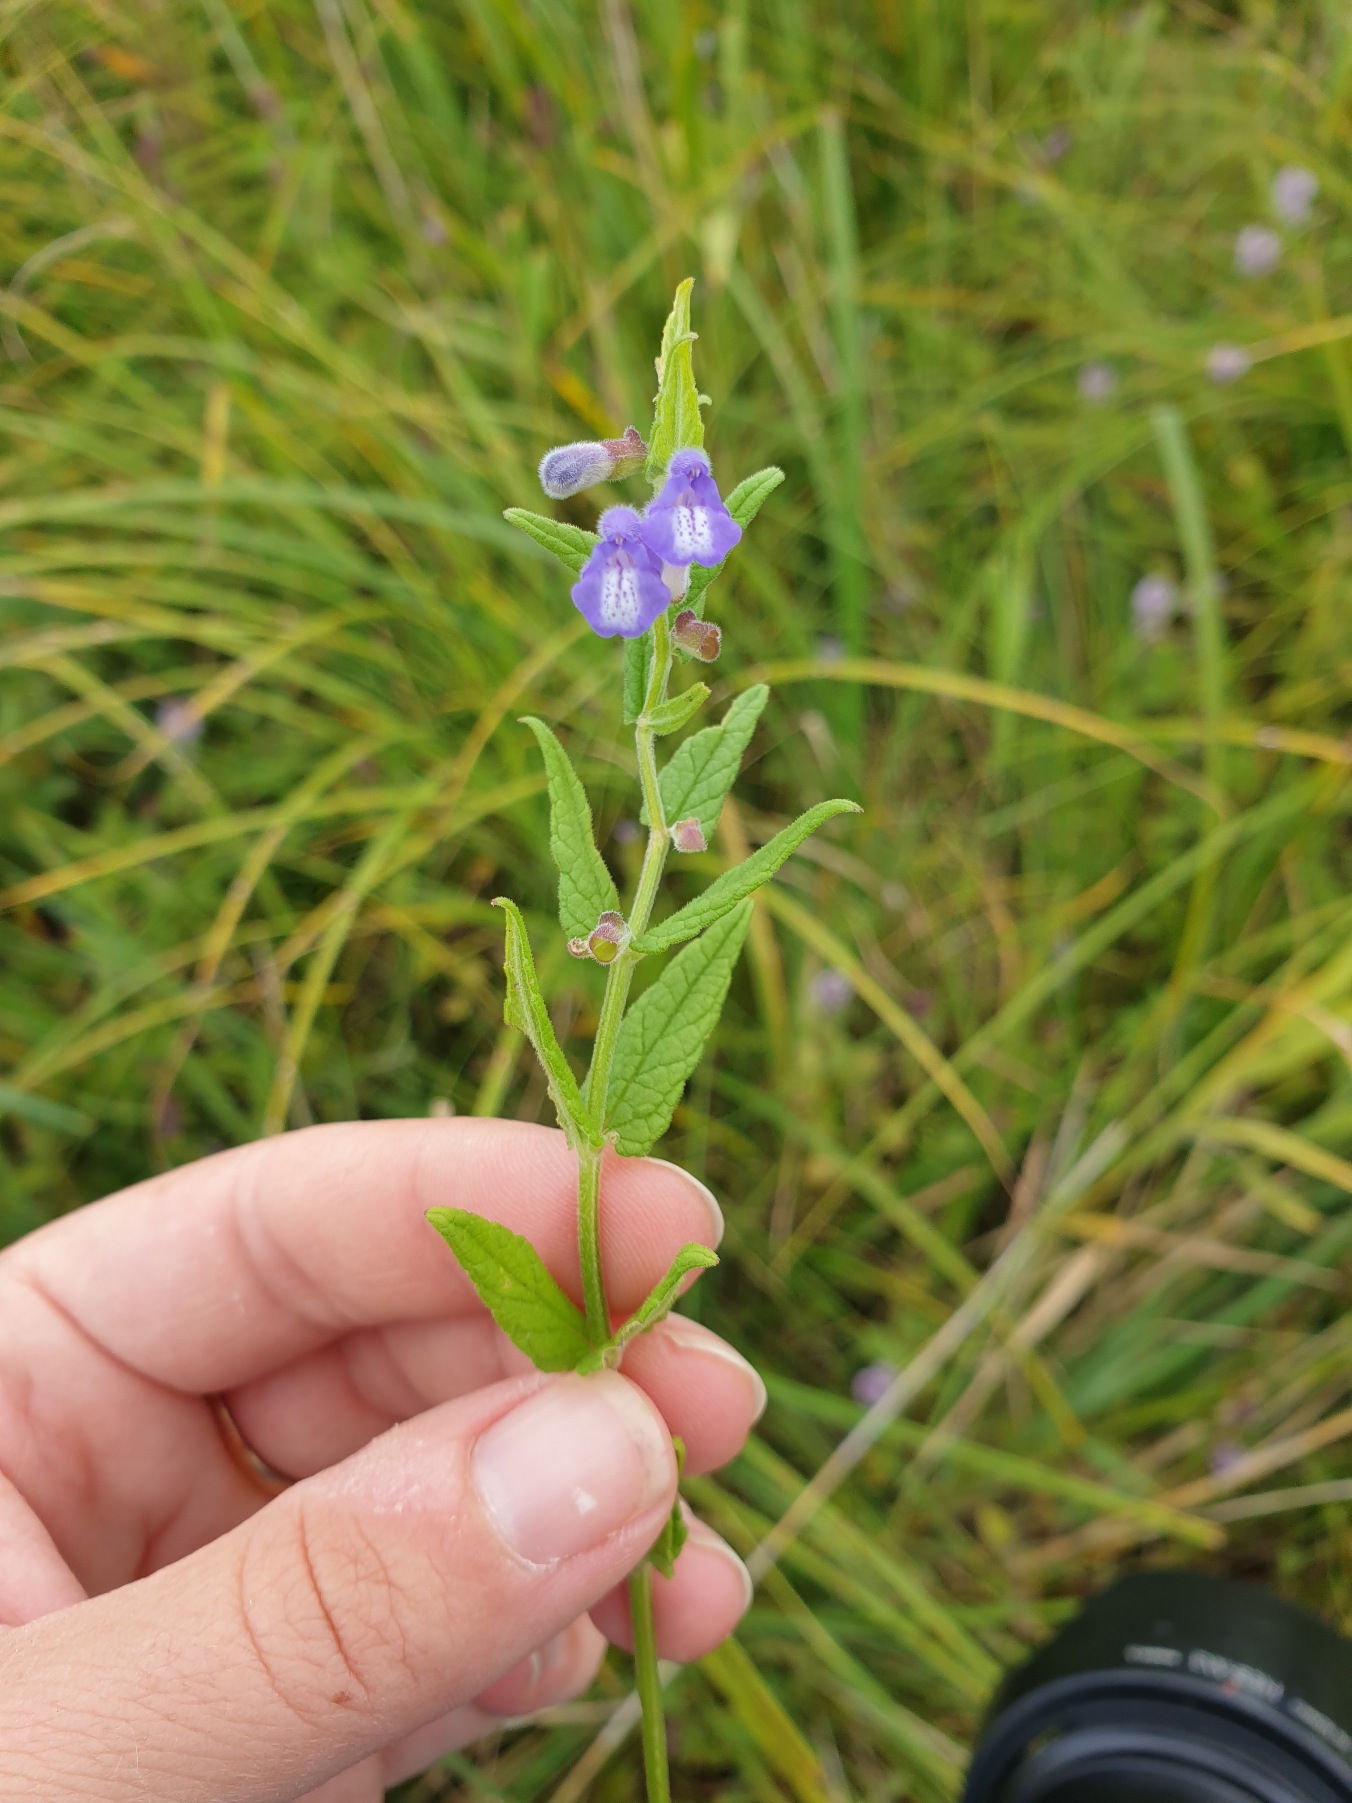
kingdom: Plantae
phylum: Tracheophyta
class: Magnoliopsida
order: Lamiales
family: Lamiaceae
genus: Scutellaria
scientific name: Scutellaria galericulata
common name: Almindelig skjolddrager
